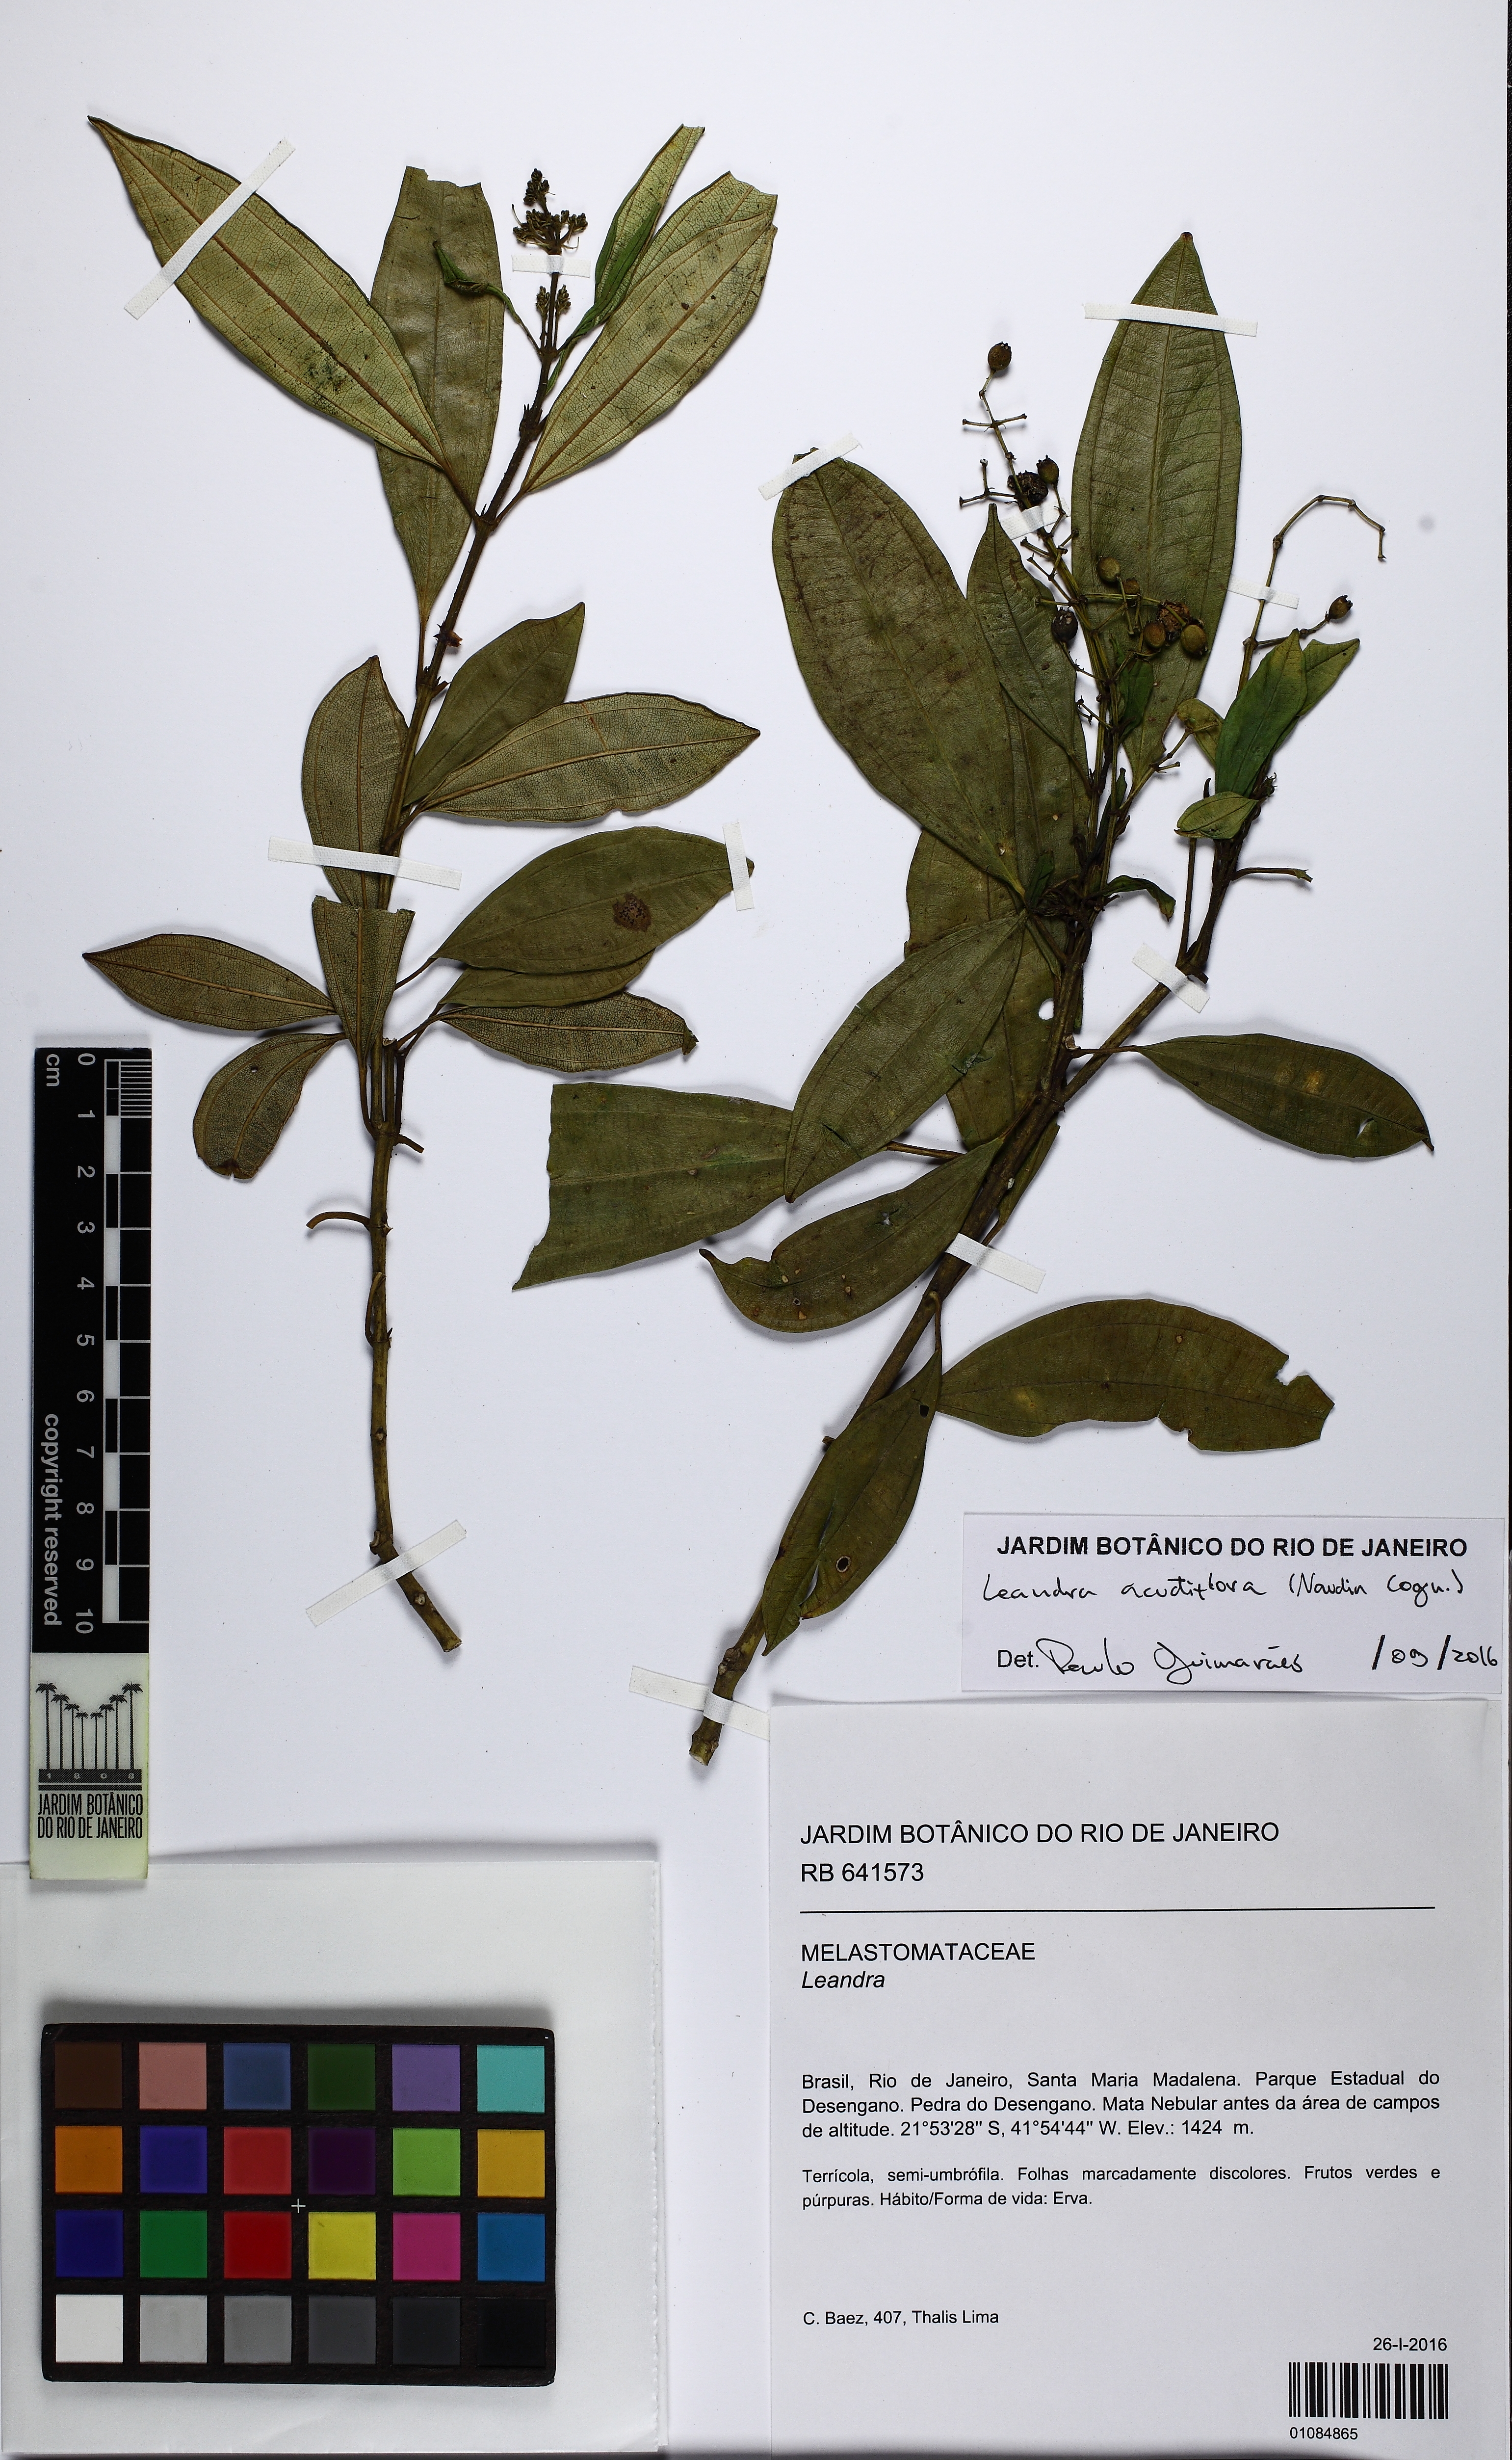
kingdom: Plantae
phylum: Tracheophyta
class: Magnoliopsida
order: Myrtales
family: Melastomataceae
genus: Miconia
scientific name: Miconia acutiflora
